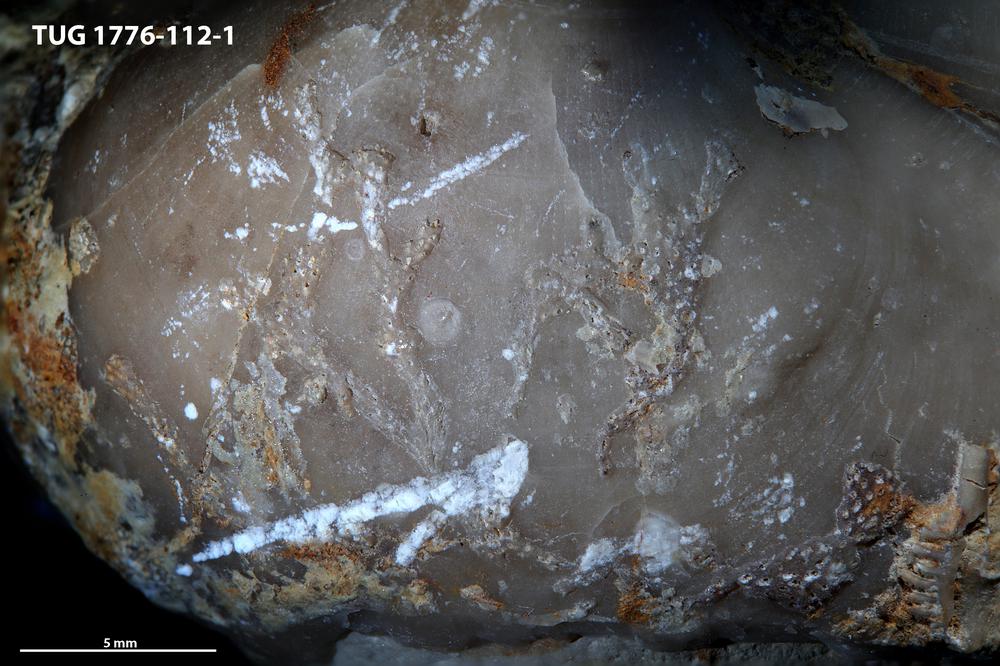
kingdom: Animalia
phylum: Bryozoa
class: Stenolaemata
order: Cyclostomatida
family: Crownoporidae
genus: Cuffeyella
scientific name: Cuffeyella
